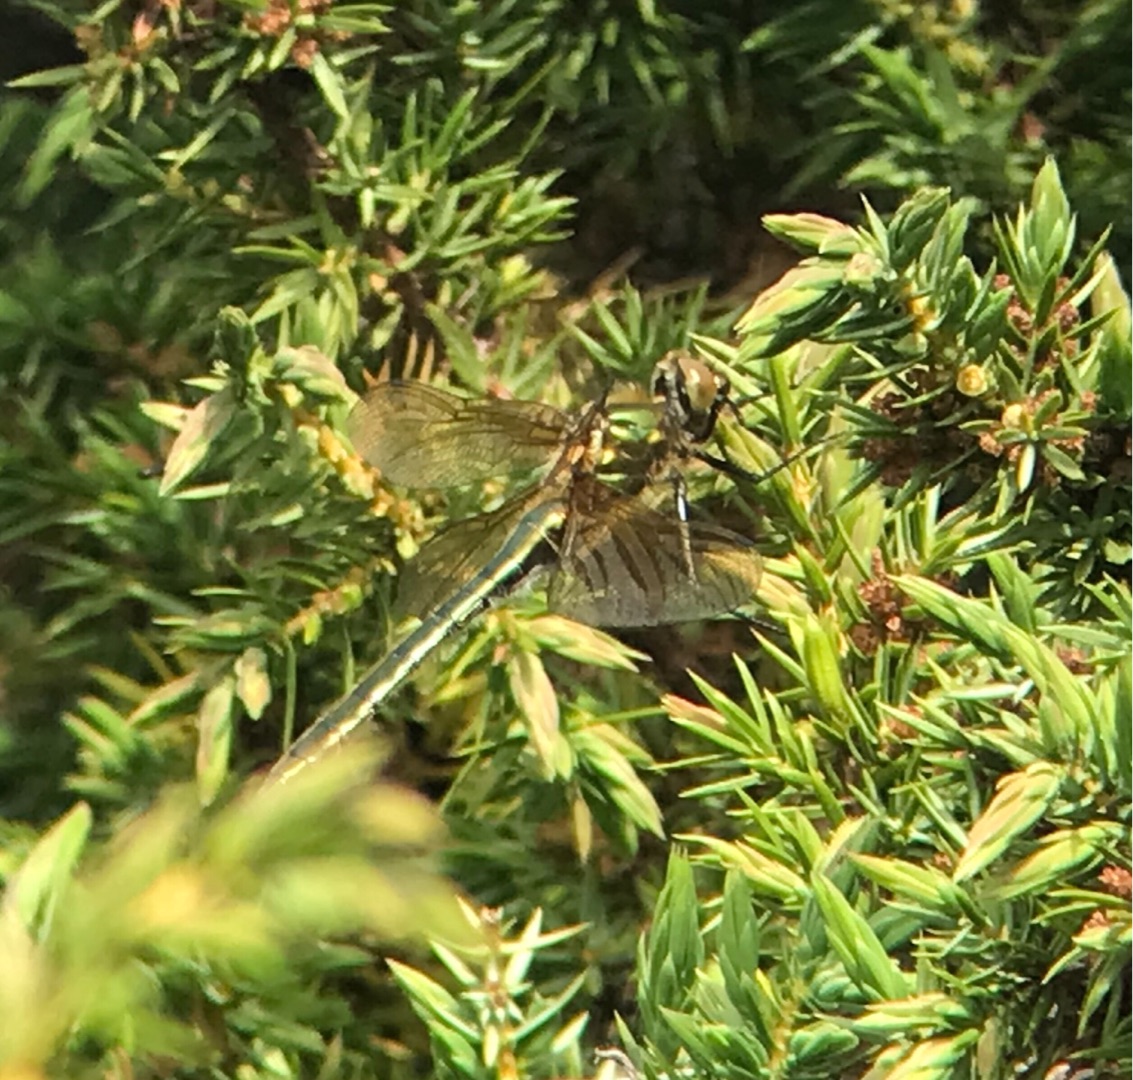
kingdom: Animalia
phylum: Arthropoda
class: Insecta
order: Odonata
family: Corduliidae
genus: Cordulia
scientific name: Cordulia aenea
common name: Grøn smaragdlibel
